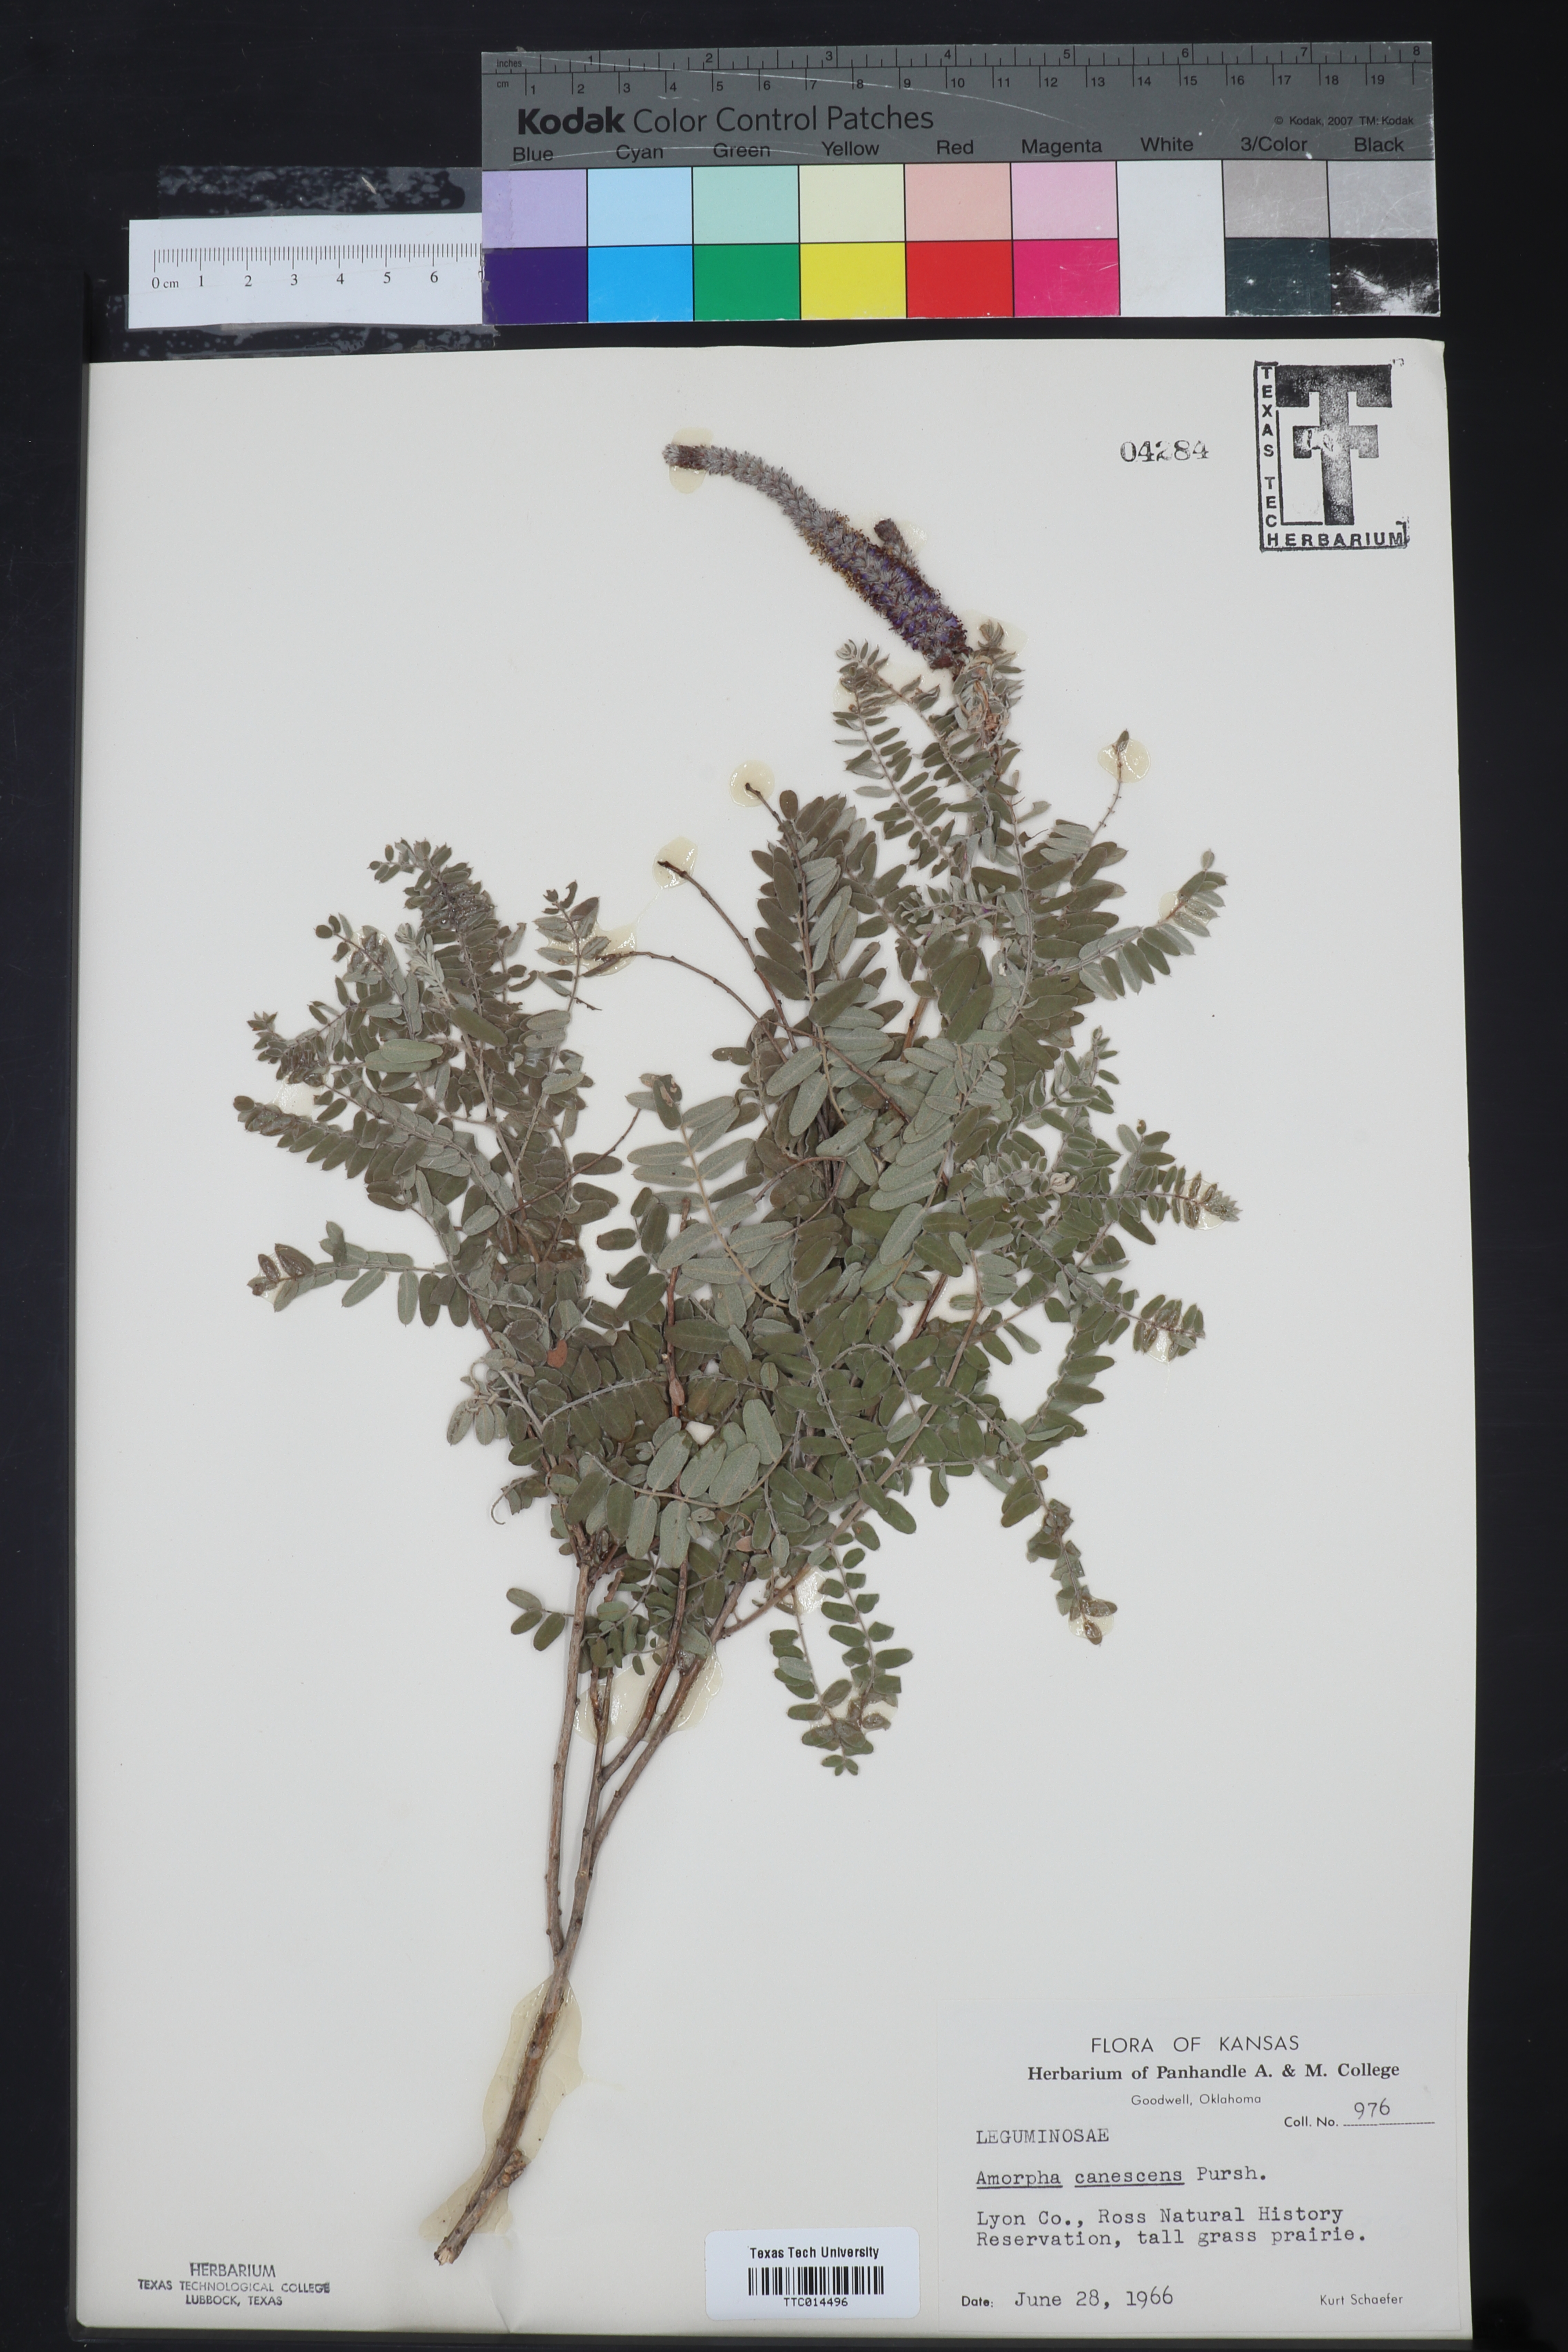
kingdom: Plantae
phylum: Tracheophyta
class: Magnoliopsida
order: Fabales
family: Fabaceae
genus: Amorpha
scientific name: Amorpha canescens
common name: Leadplant
